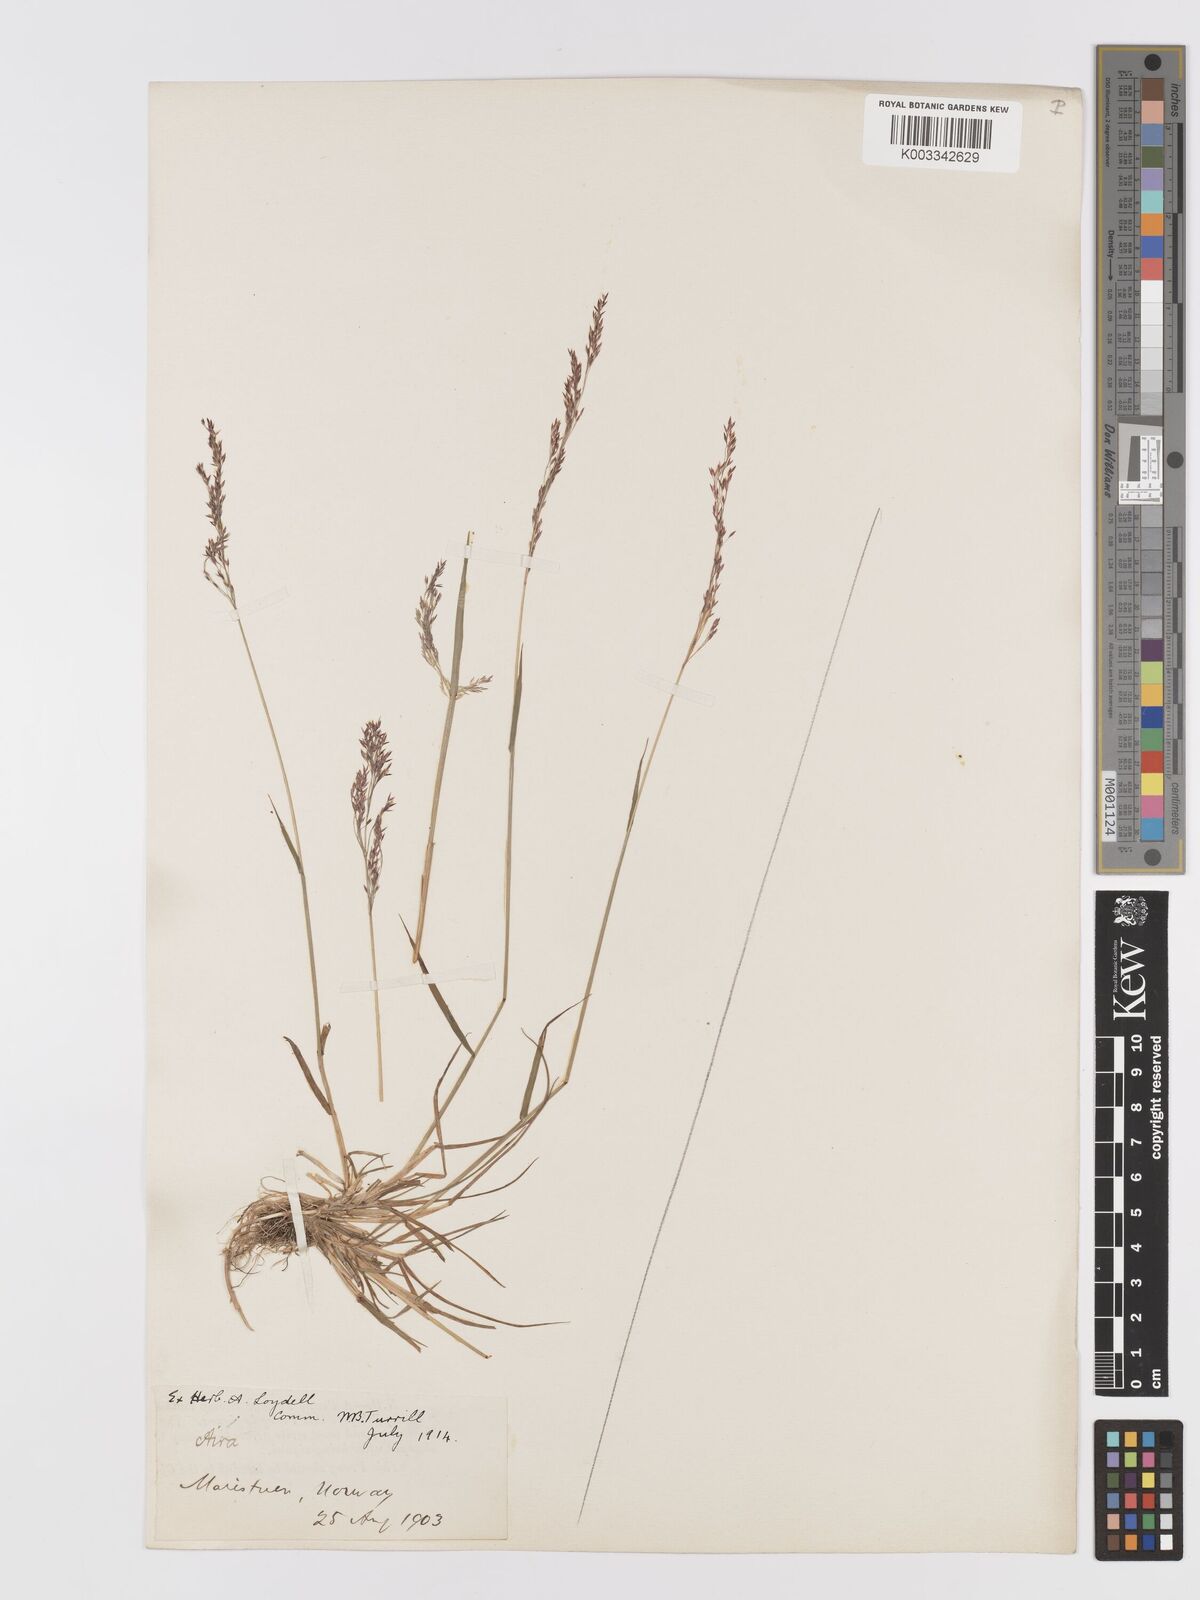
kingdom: Plantae
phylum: Tracheophyta
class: Liliopsida
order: Poales
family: Poaceae
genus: Agrostis
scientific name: Agrostis
